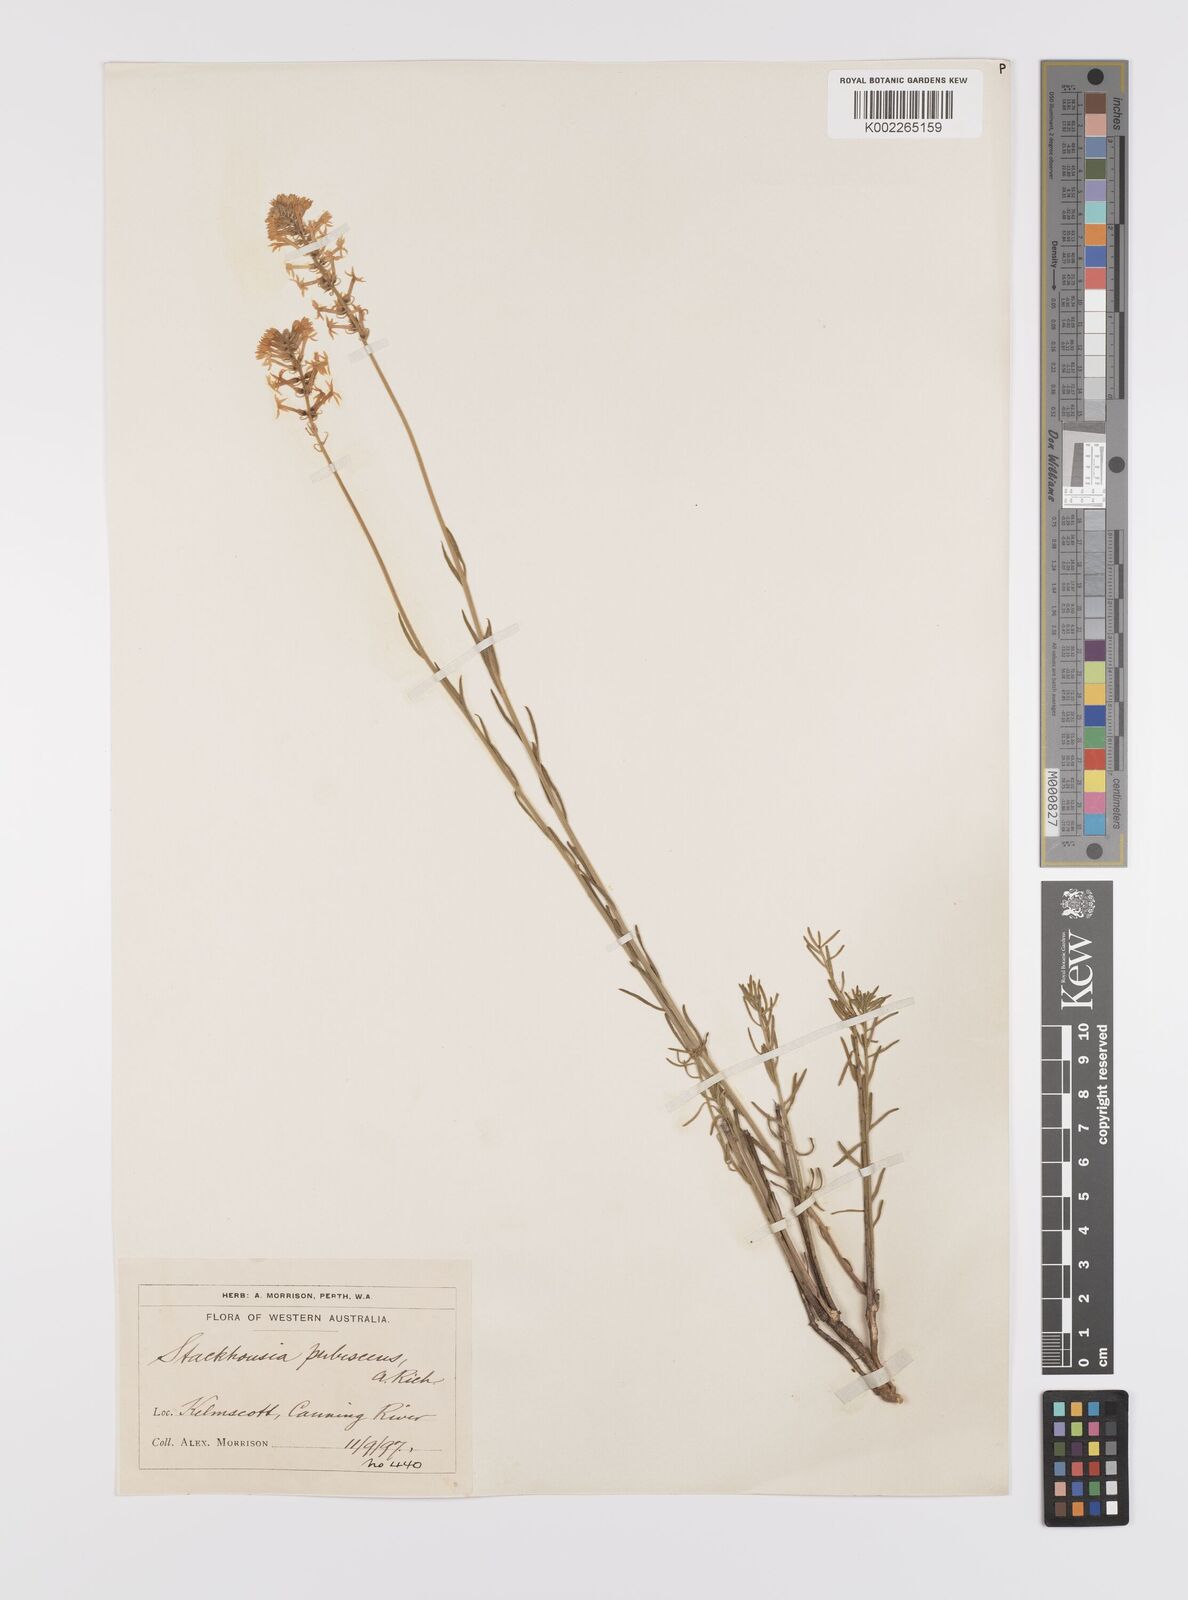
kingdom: Plantae
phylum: Tracheophyta
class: Magnoliopsida
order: Celastrales
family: Celastraceae
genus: Stackhousia
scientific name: Stackhousia monogyna
